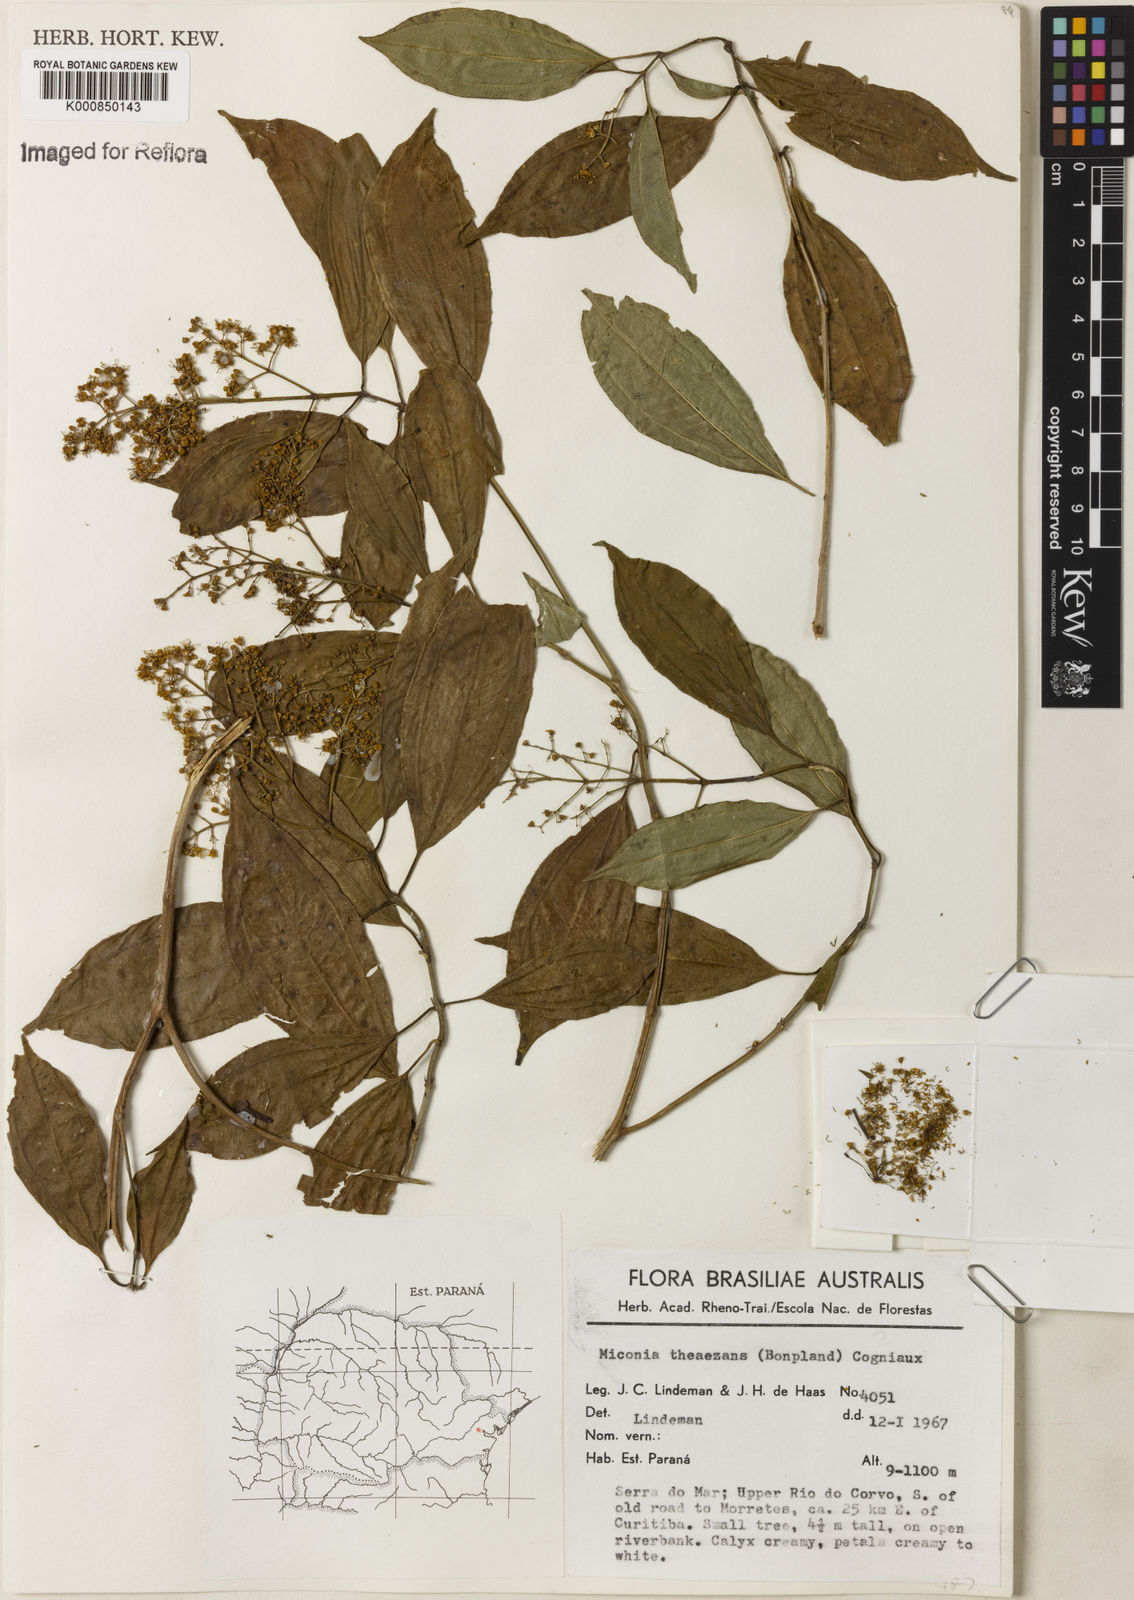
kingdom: Plantae
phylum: Tracheophyta
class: Magnoliopsida
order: Myrtales
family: Melastomataceae
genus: Miconia
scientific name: Miconia
